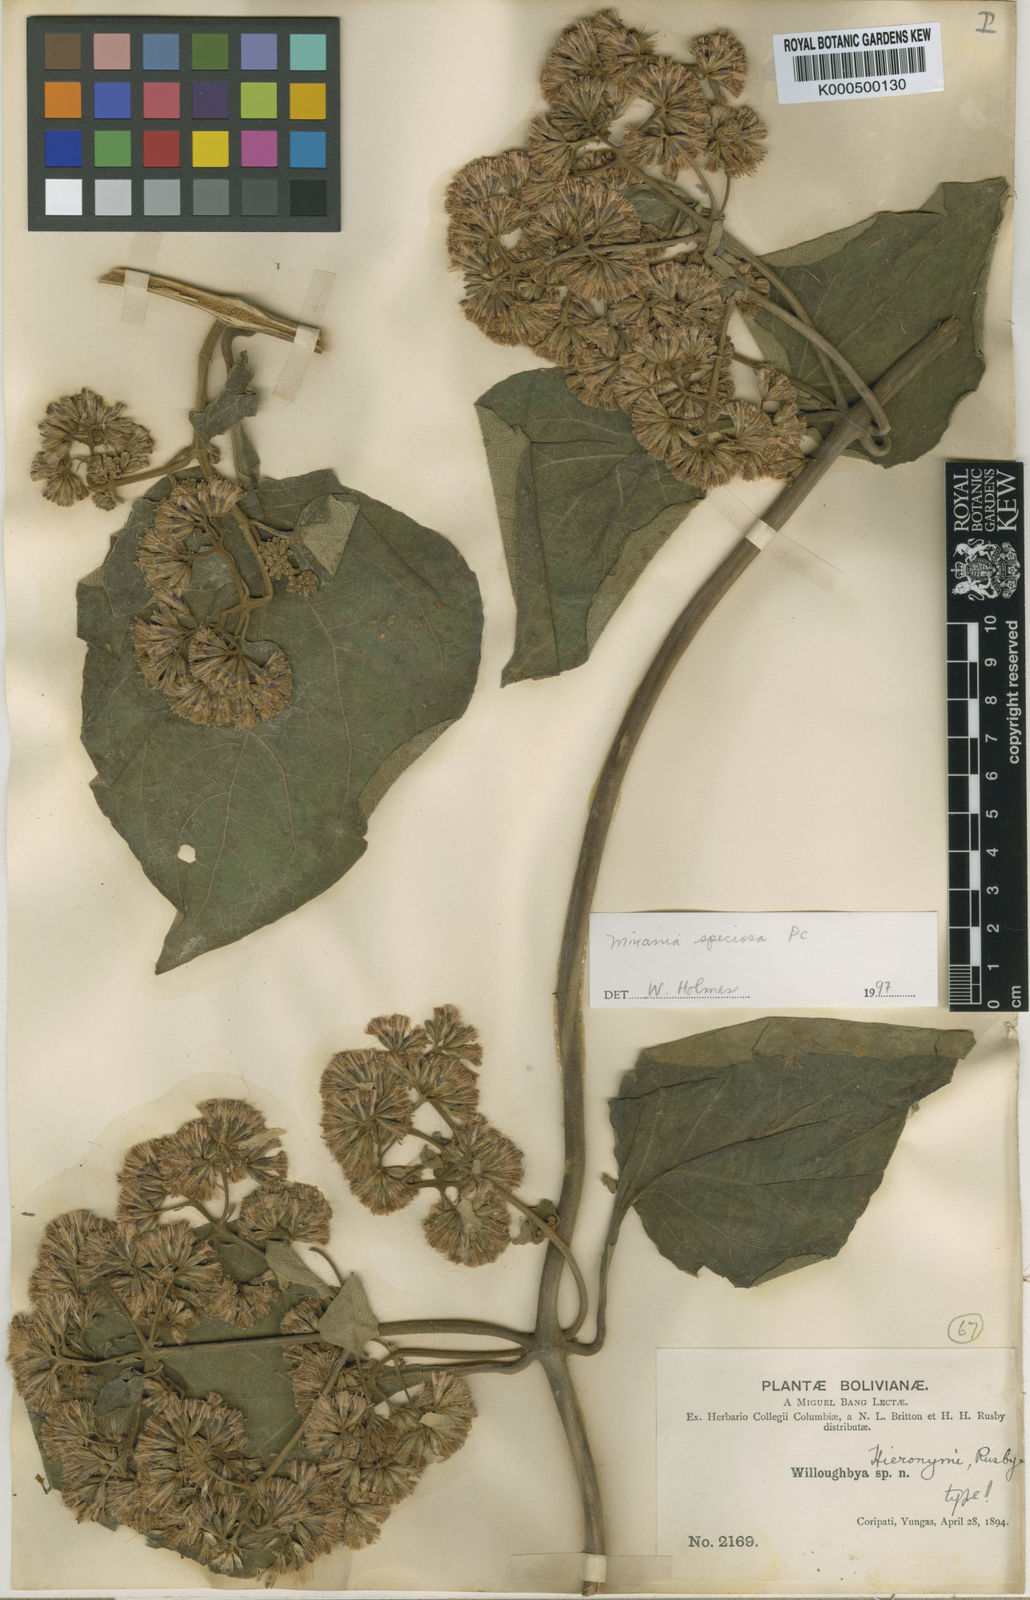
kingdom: Plantae
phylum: Tracheophyta
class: Magnoliopsida
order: Asterales
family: Asteraceae
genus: Mikania
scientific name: Mikania speciosa
